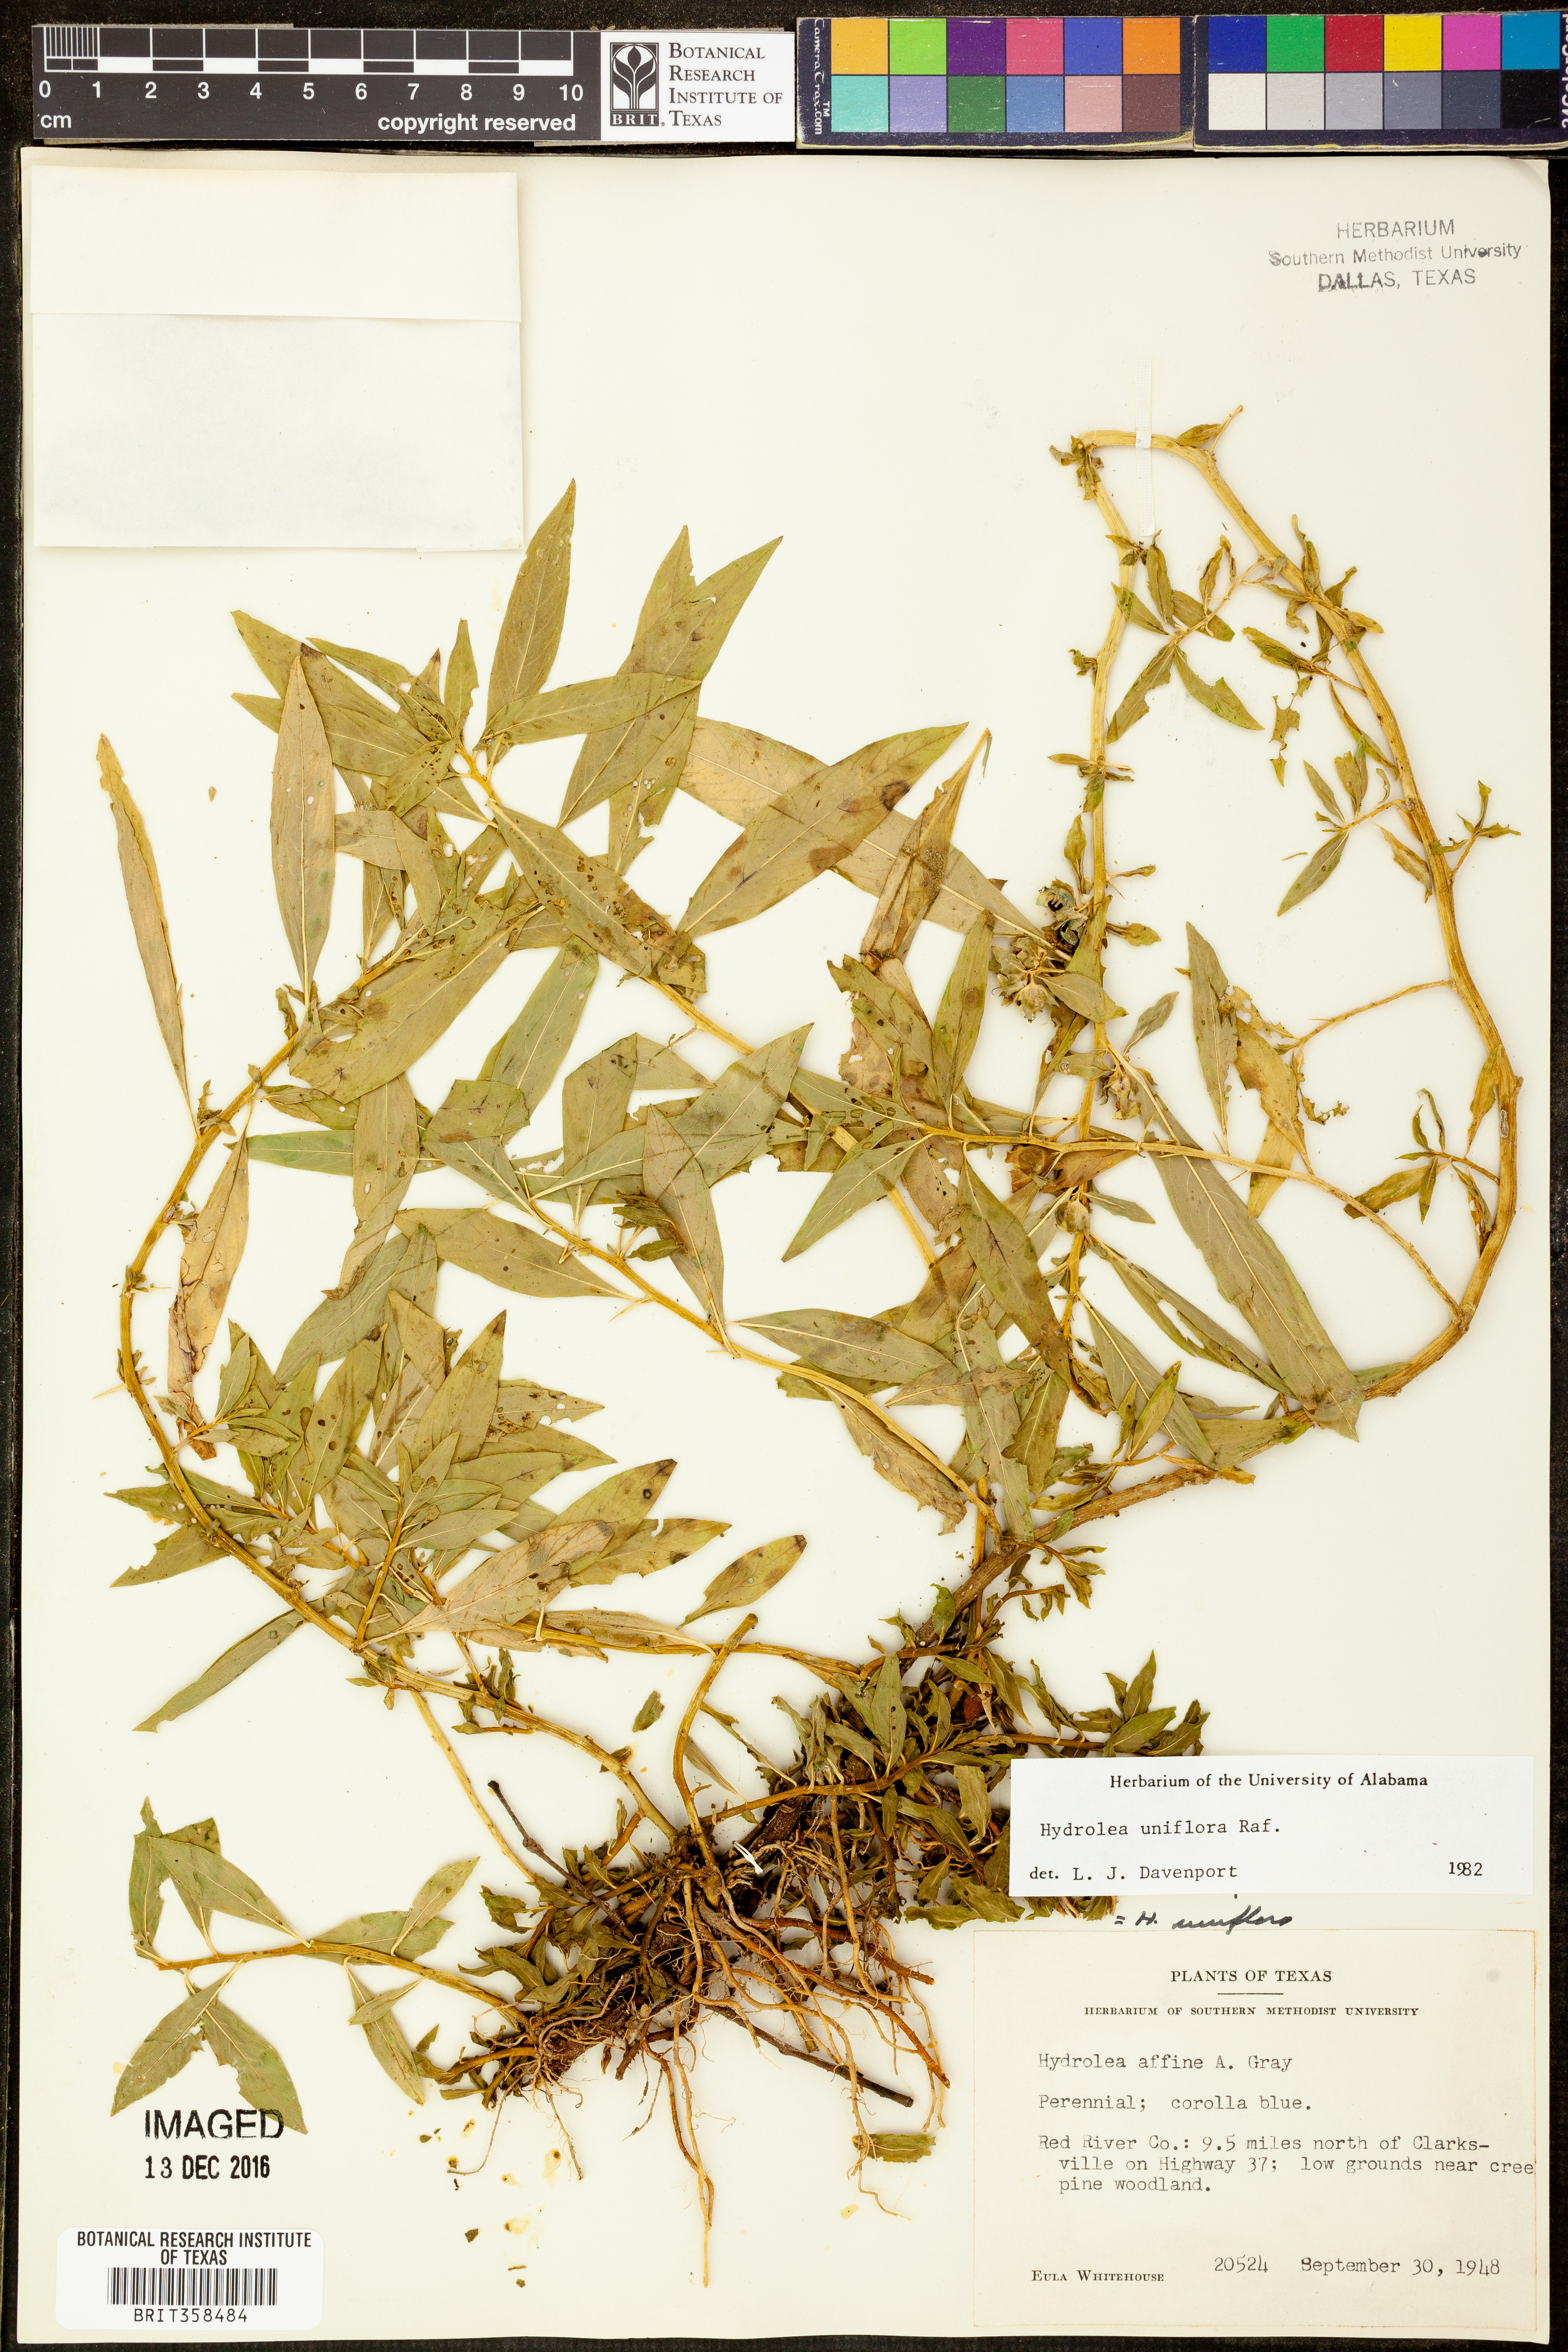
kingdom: Plantae
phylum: Tracheophyta
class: Magnoliopsida
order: Solanales
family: Hydroleaceae
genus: Hydrolea
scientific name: Hydrolea uniflora
